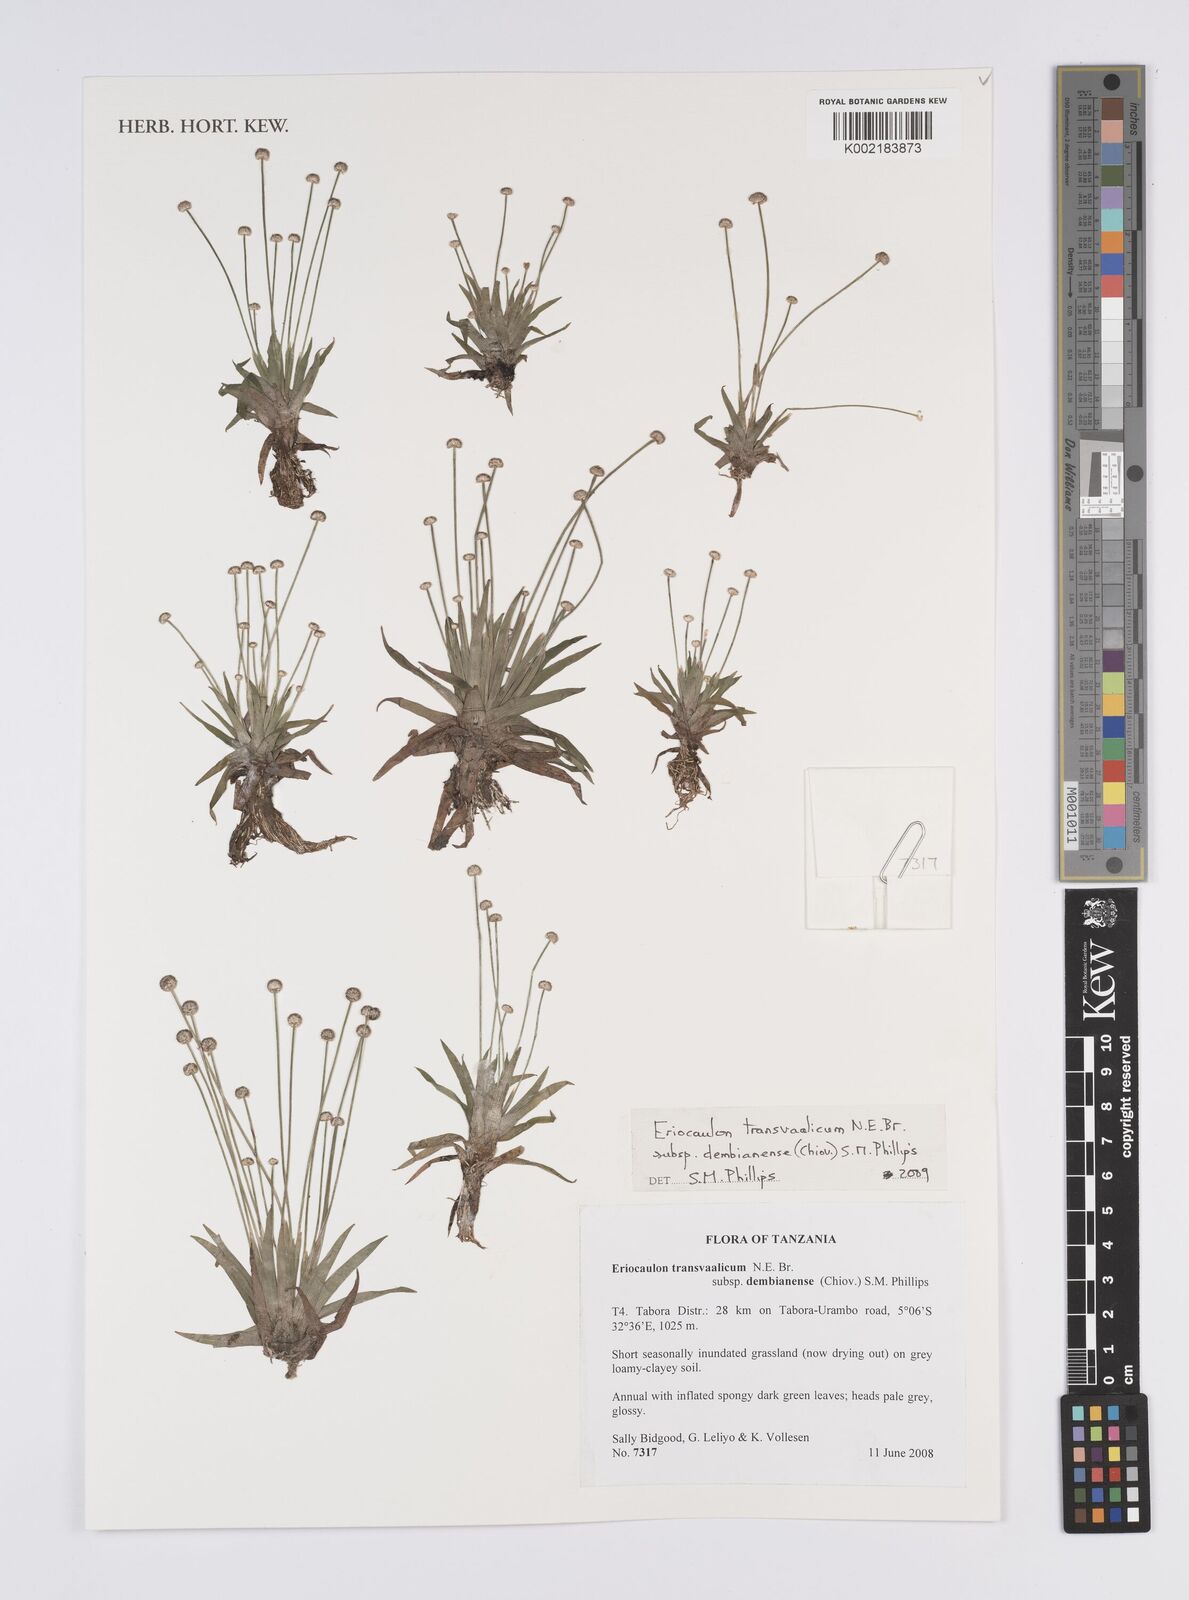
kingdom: Plantae
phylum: Tracheophyta
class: Liliopsida
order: Poales
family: Eriocaulaceae
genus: Eriocaulon
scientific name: Eriocaulon transvaalicum
